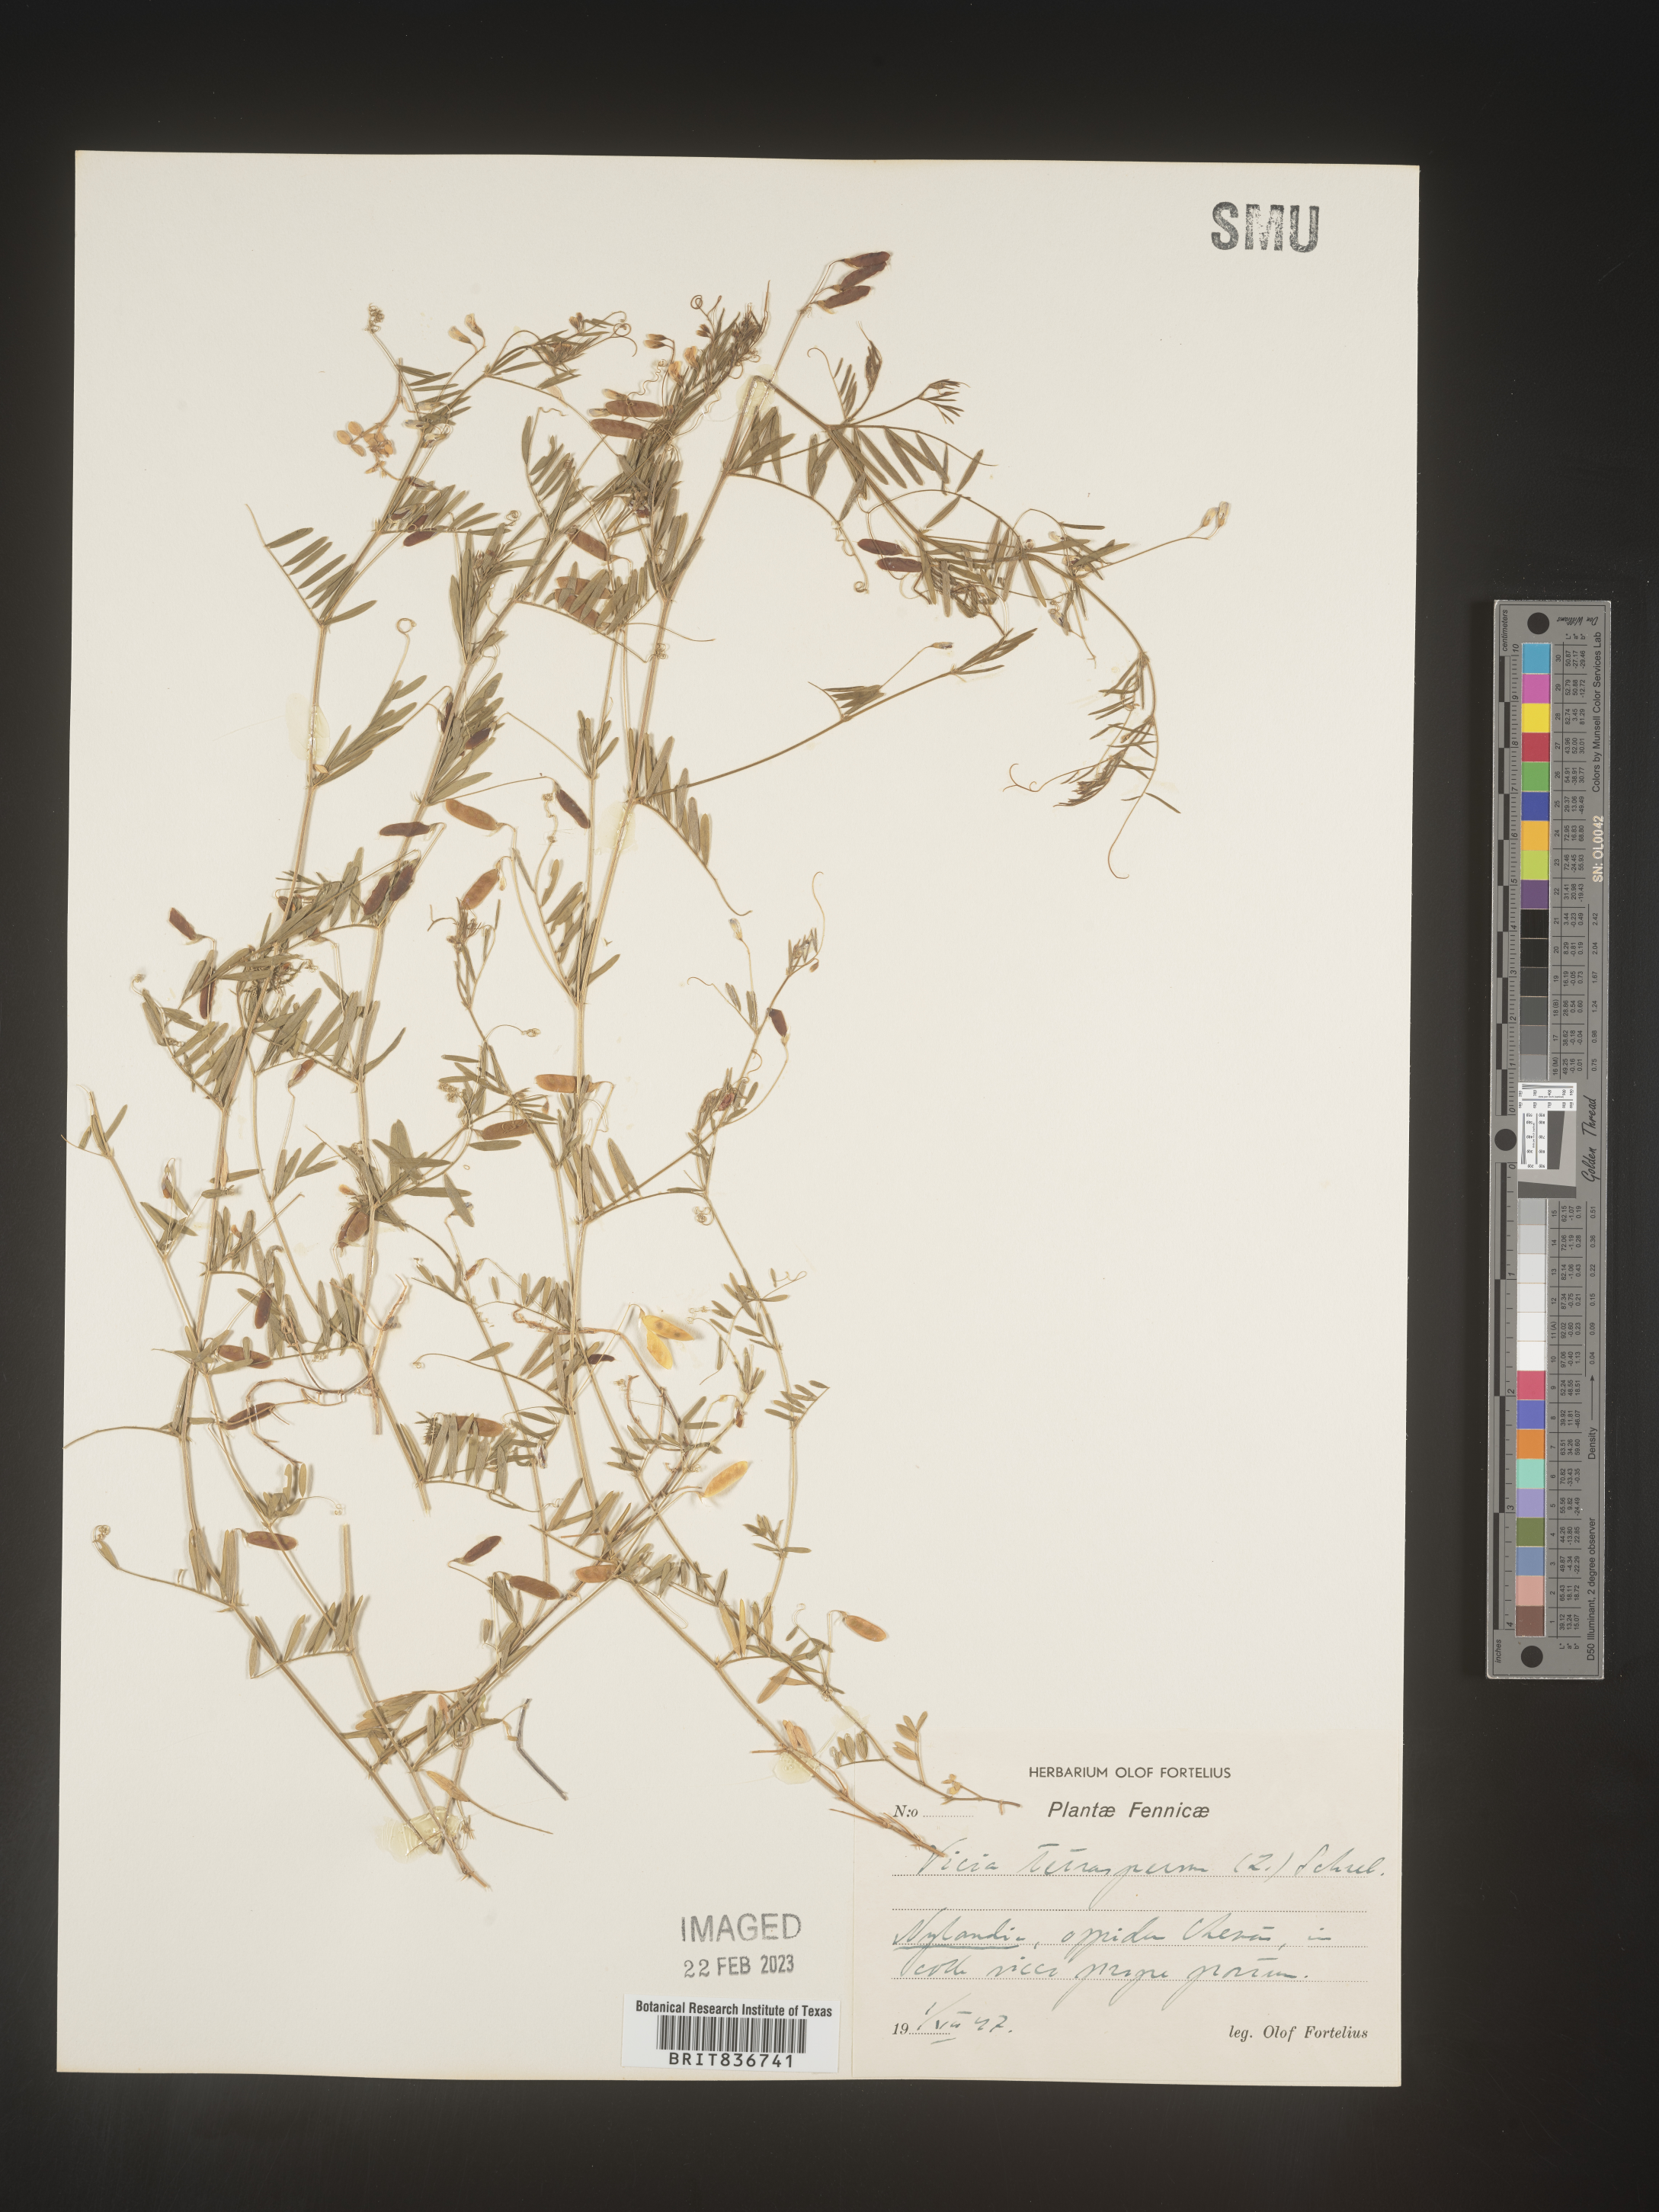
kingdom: Plantae
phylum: Tracheophyta
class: Magnoliopsida
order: Fabales
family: Fabaceae
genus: Vicia
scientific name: Vicia
